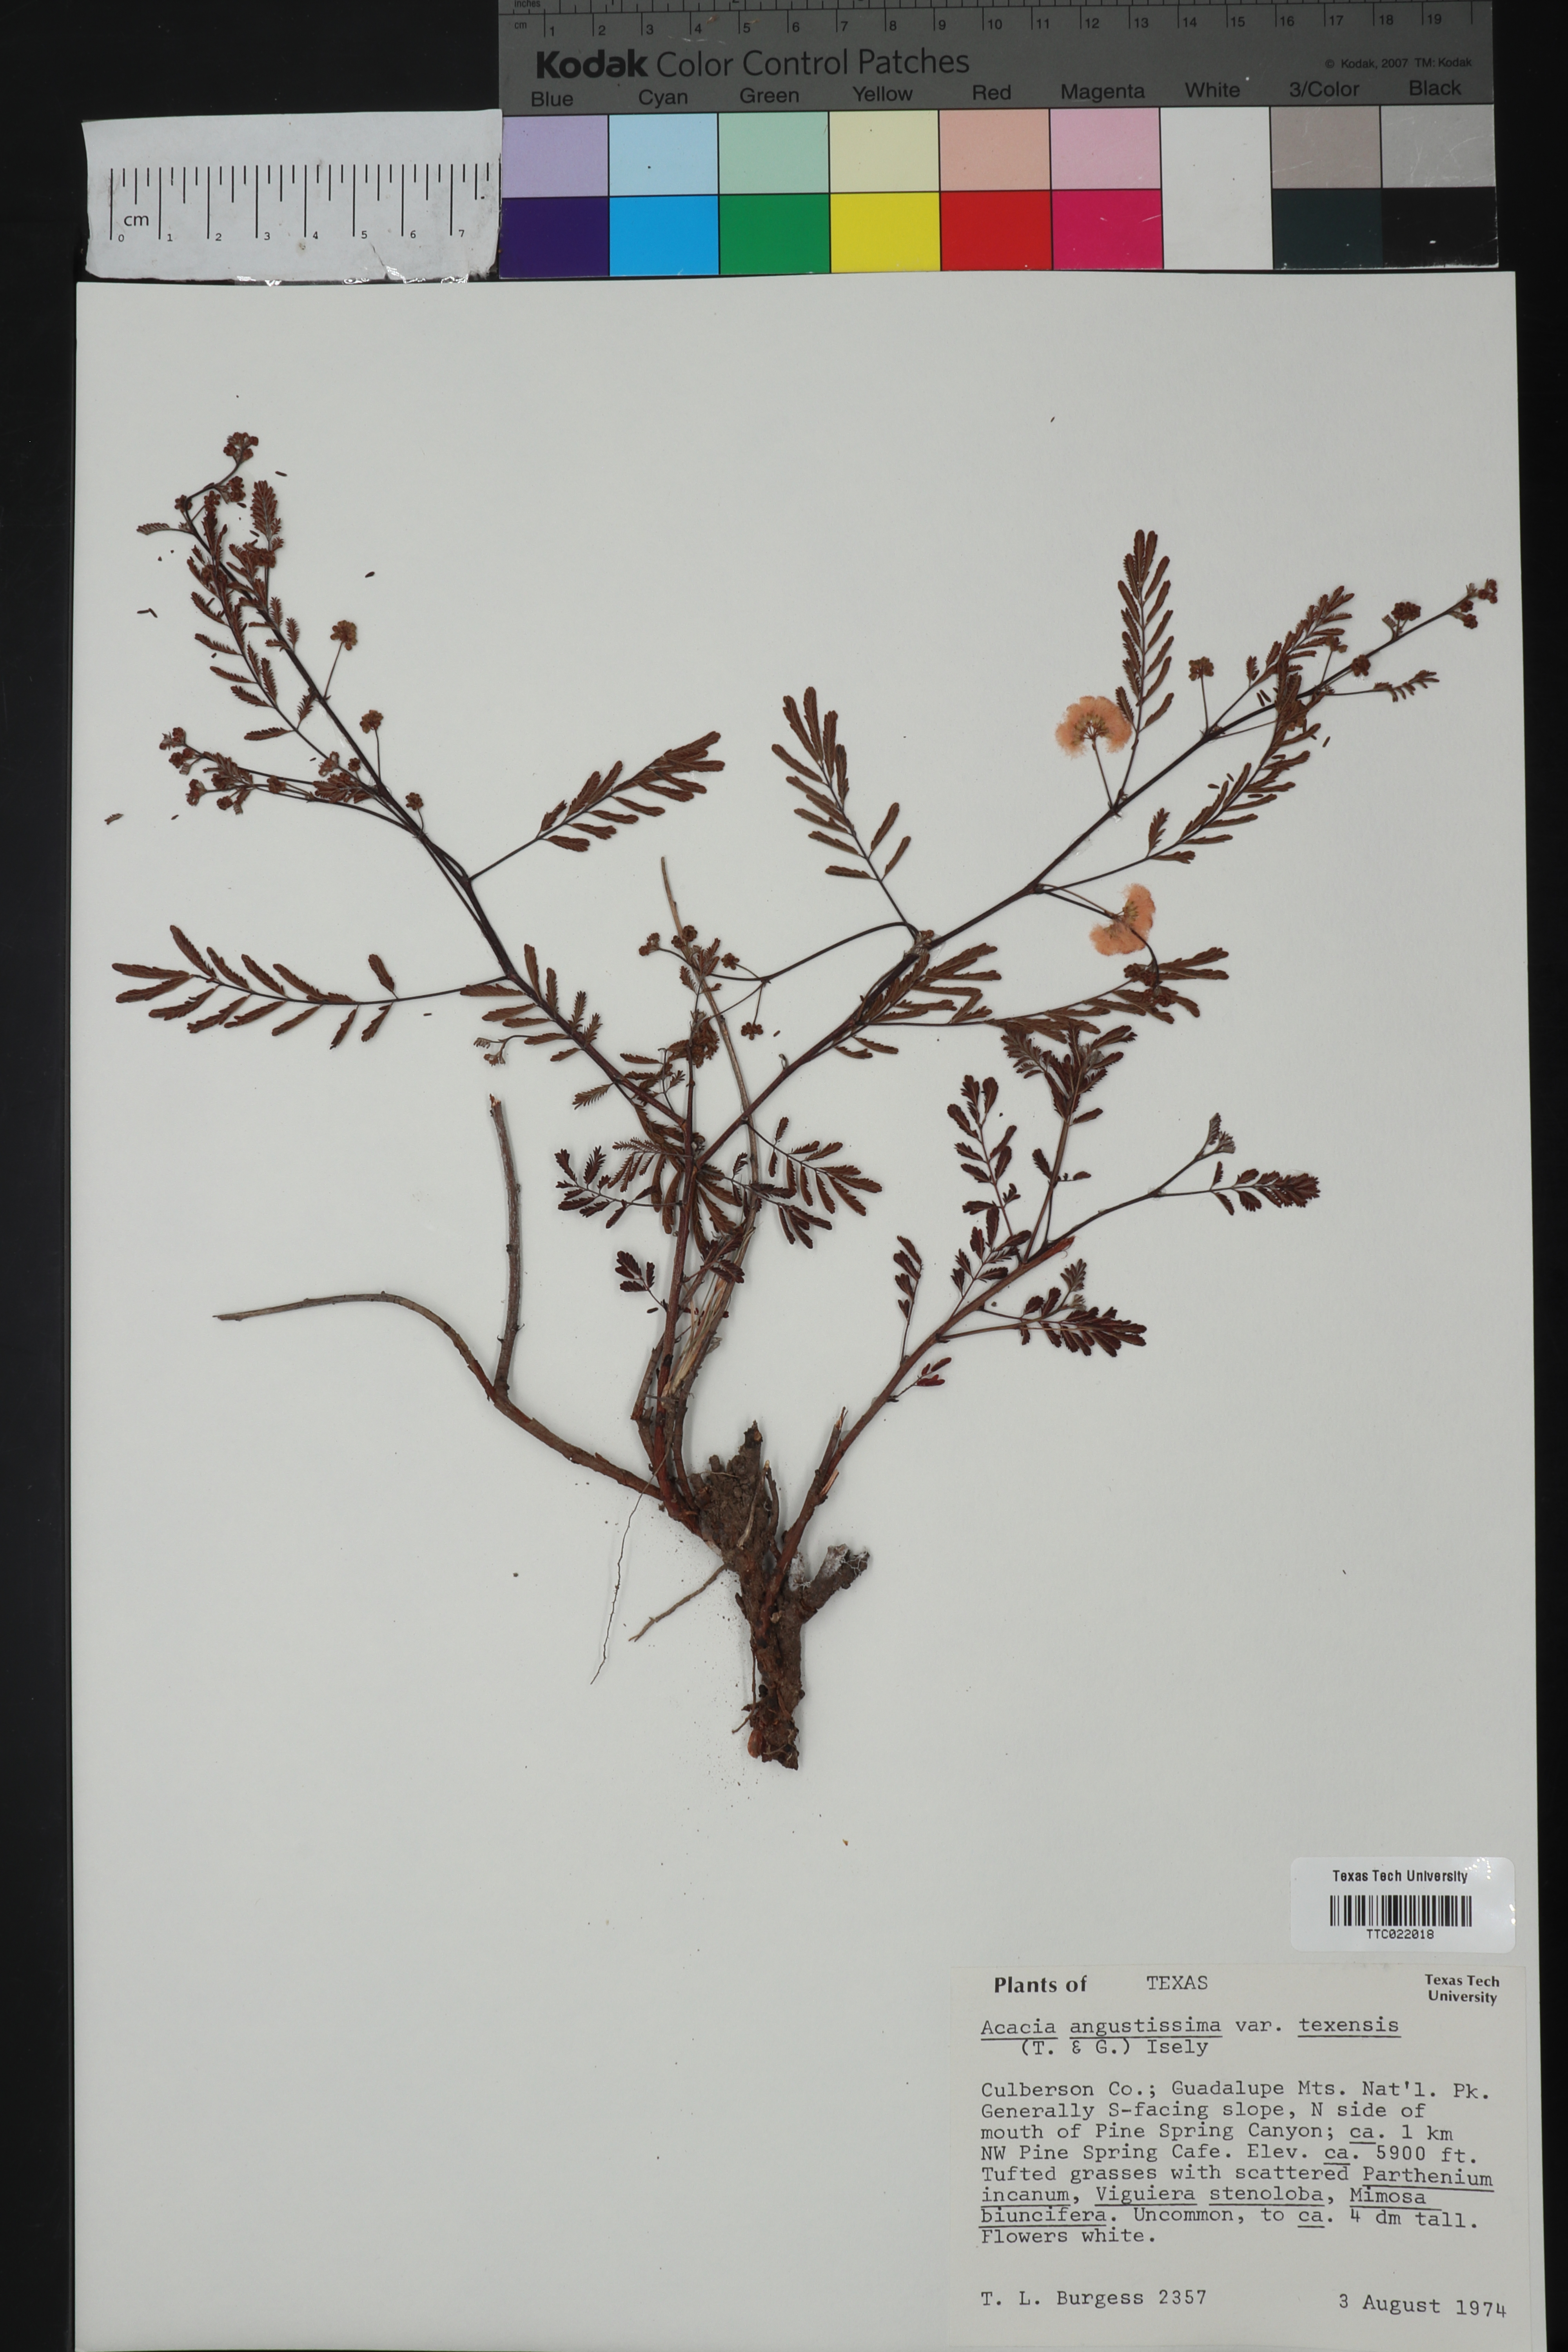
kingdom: Plantae
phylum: Tracheophyta
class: Magnoliopsida
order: Fabales
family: Fabaceae
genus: Acaciella
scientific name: Acaciella angustissima
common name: Prairie acacia
